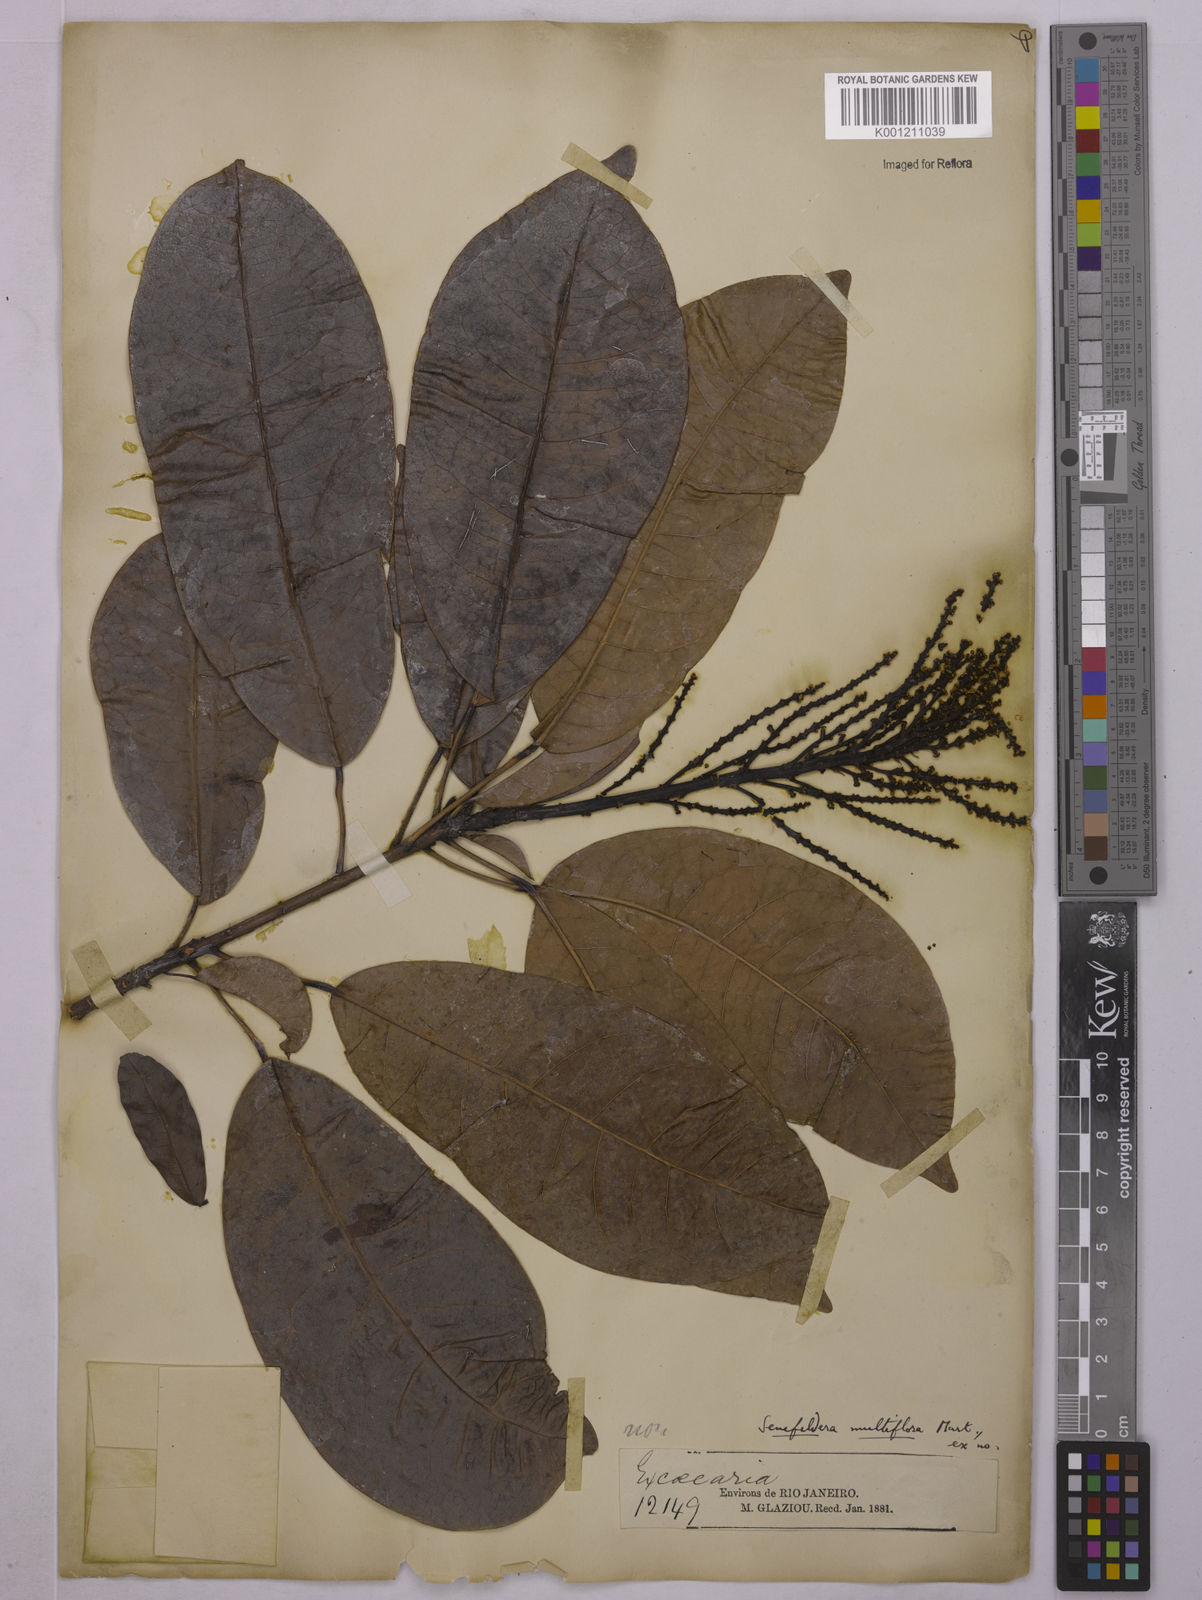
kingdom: Plantae
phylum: Tracheophyta
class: Magnoliopsida
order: Malpighiales
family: Euphorbiaceae
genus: Senefeldera
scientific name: Senefeldera verticillata
